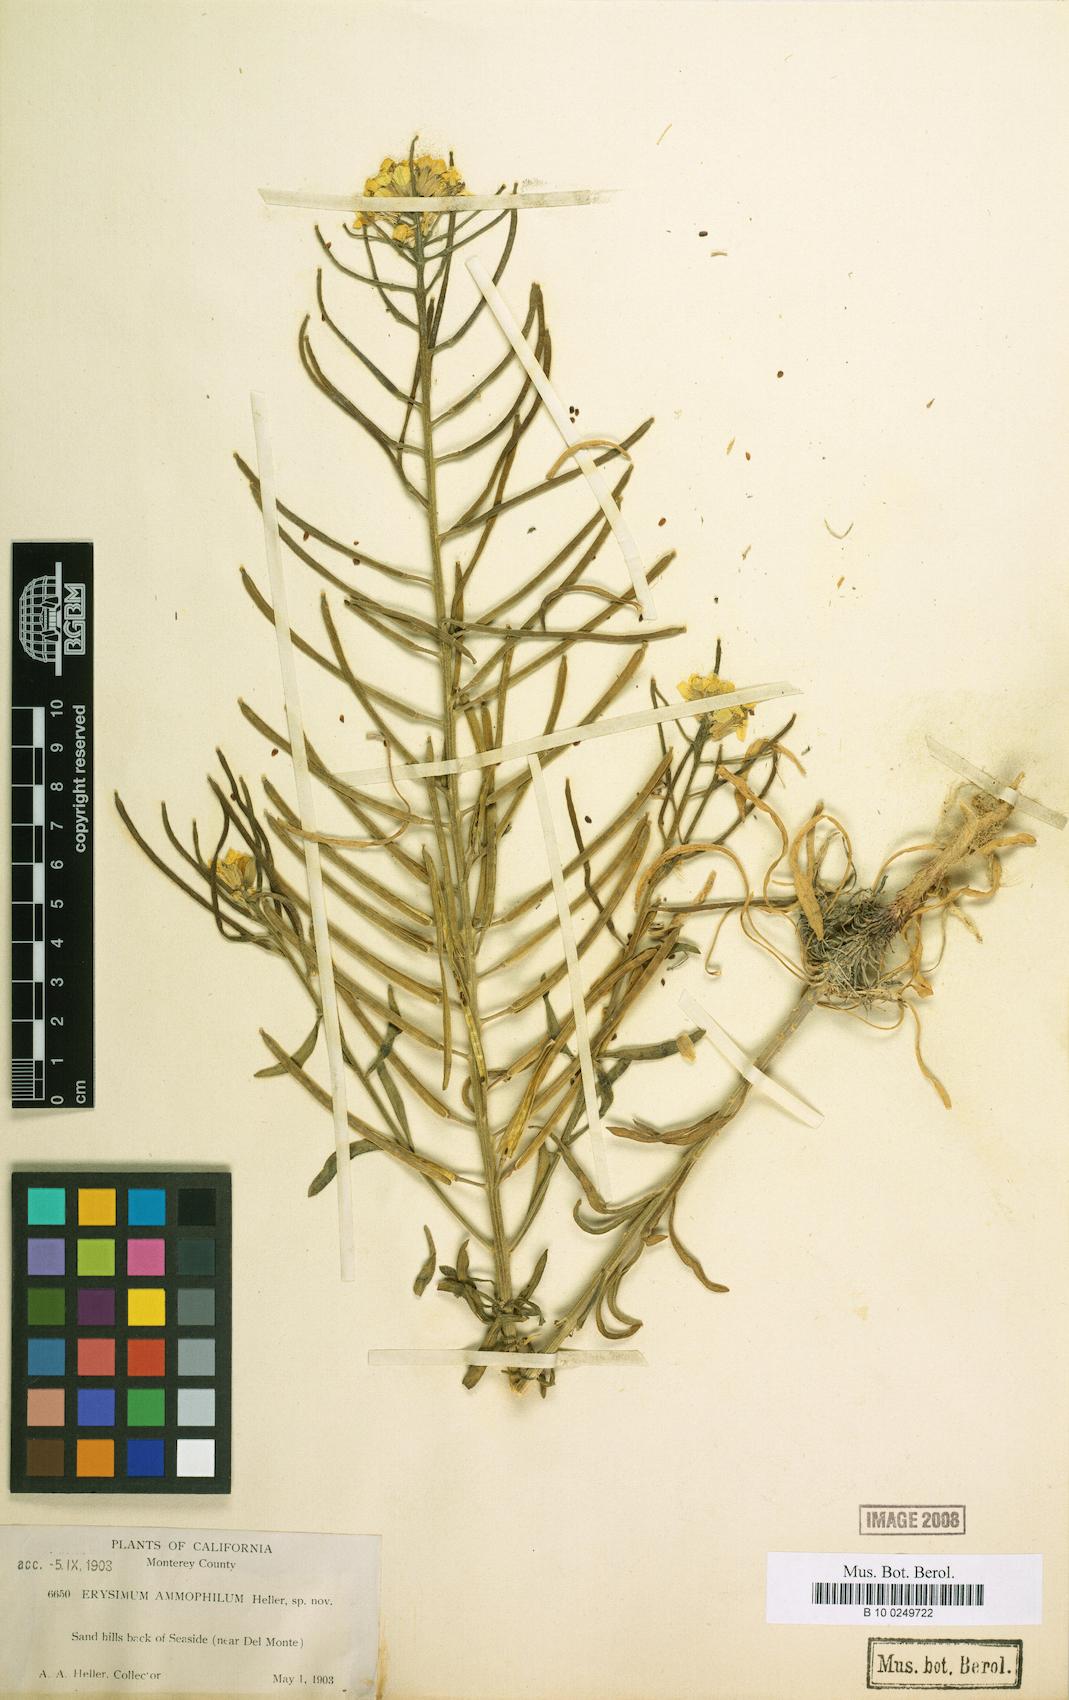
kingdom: Plantae
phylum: Tracheophyta
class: Magnoliopsida
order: Brassicales
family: Brassicaceae
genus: Erysimum
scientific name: Erysimum ammophilum
